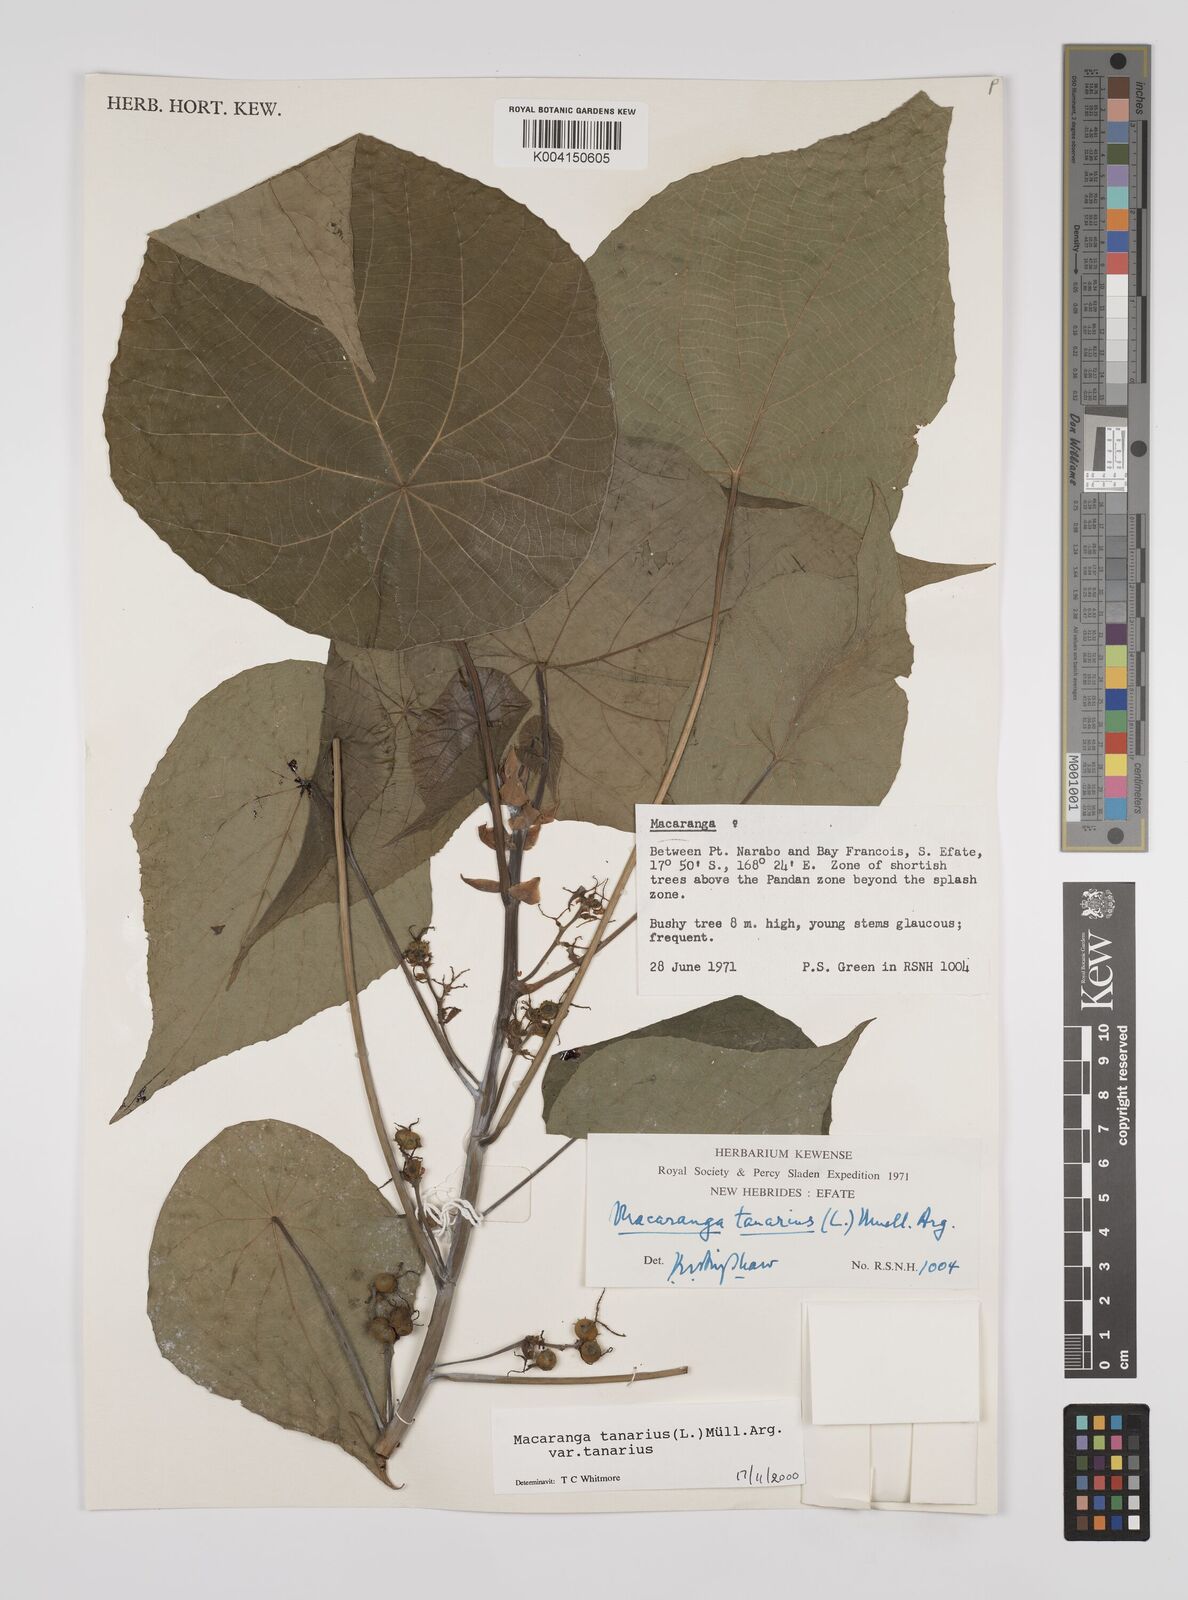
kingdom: Plantae
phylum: Tracheophyta
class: Magnoliopsida
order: Malpighiales
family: Euphorbiaceae
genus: Macaranga
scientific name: Macaranga tanarius
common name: Parasol leaf tree
